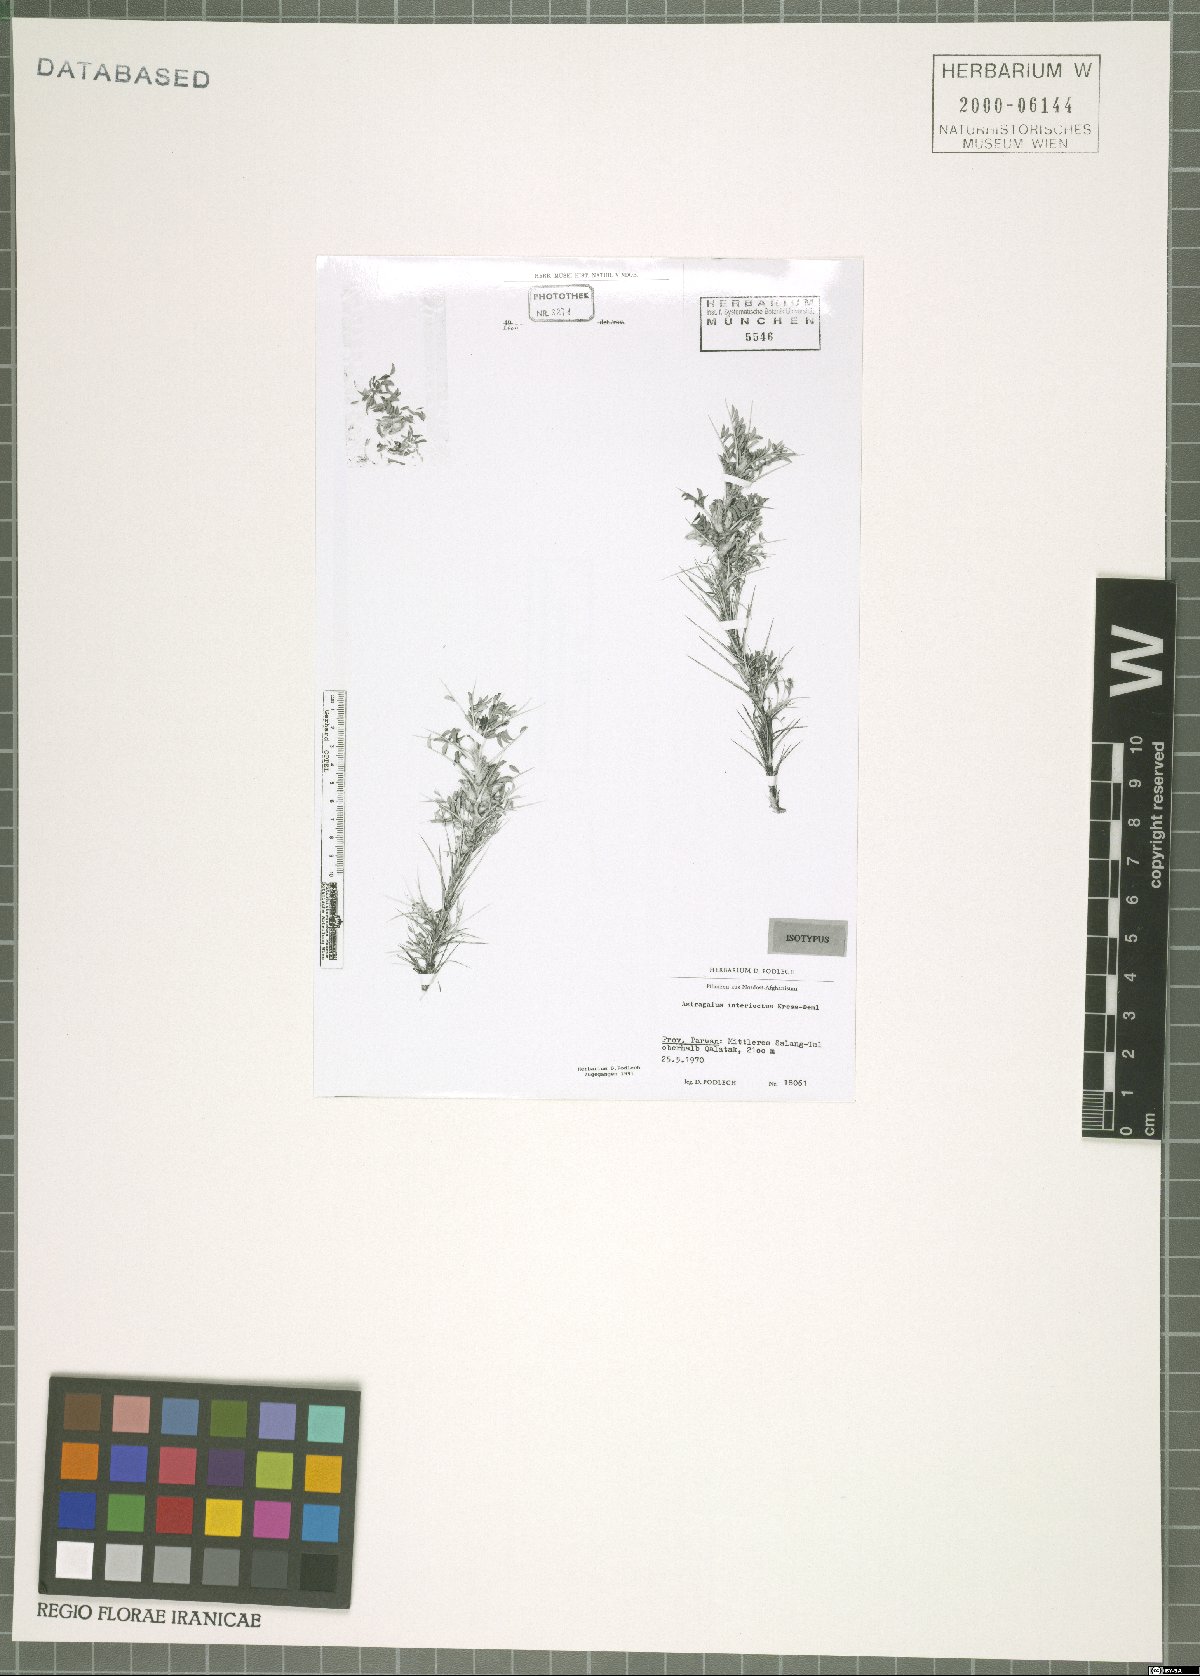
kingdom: Plantae
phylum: Tracheophyta
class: Magnoliopsida
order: Fabales
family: Fabaceae
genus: Astragalus
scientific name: Astragalus interiectus
